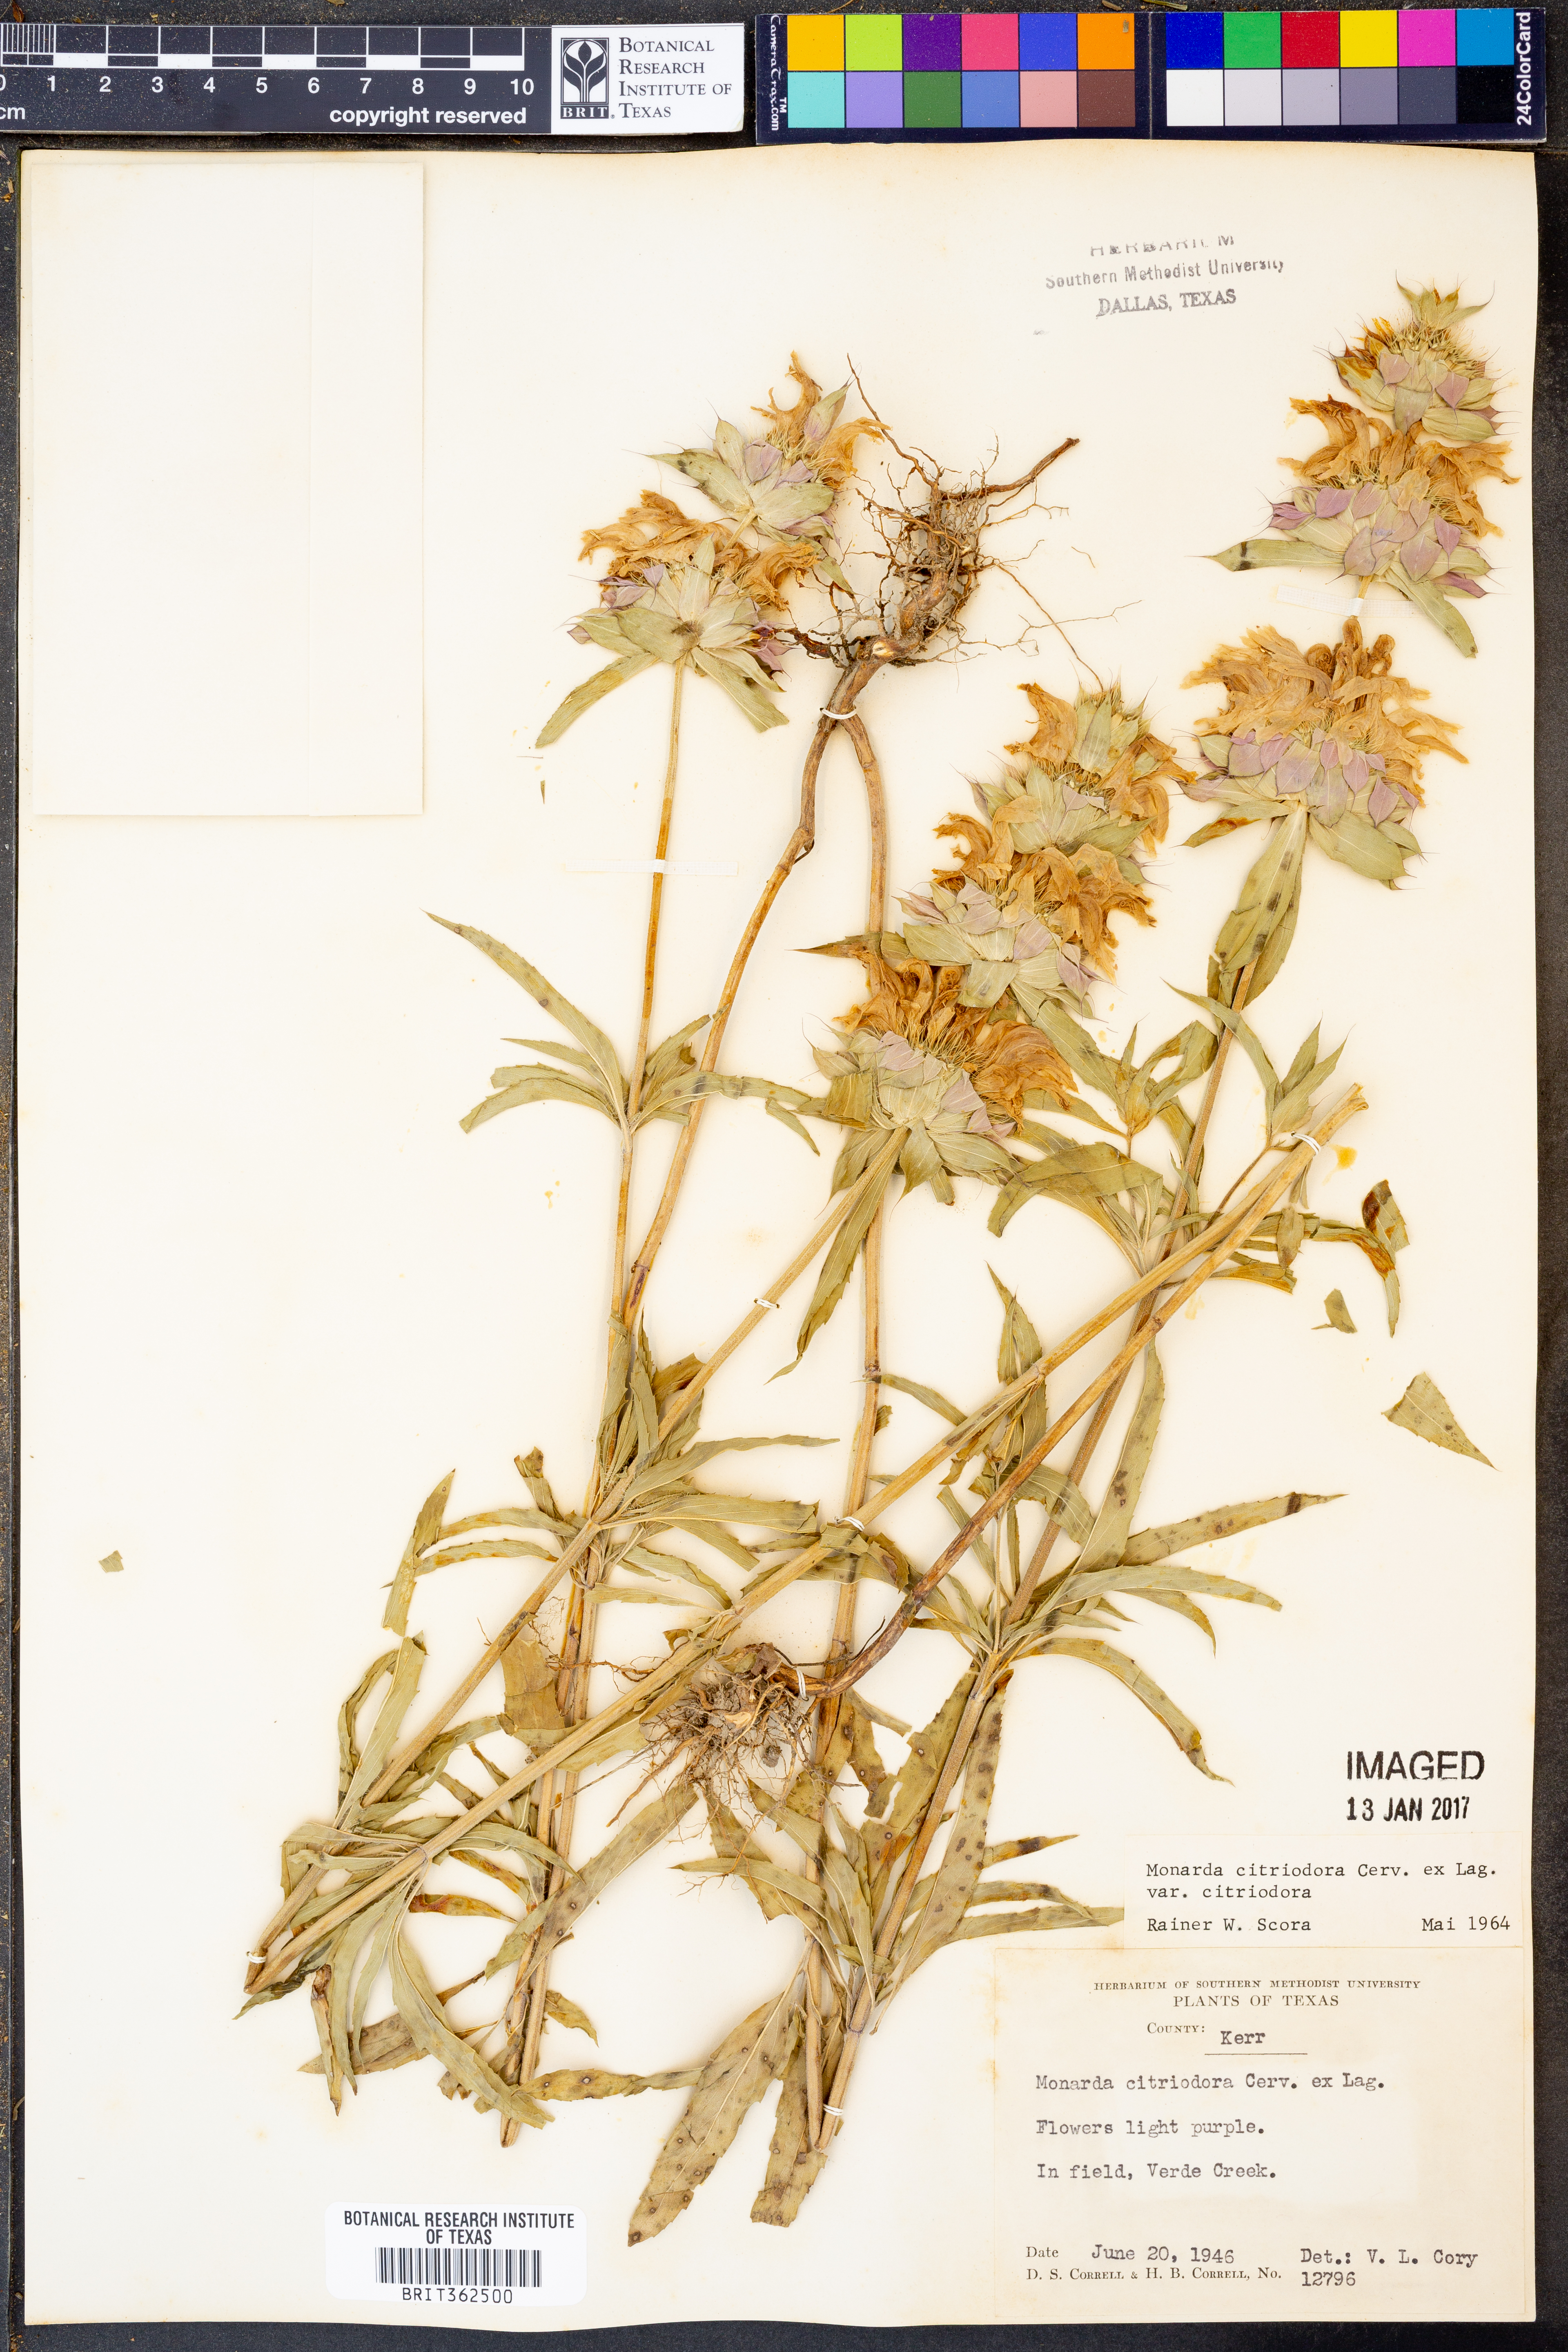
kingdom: Plantae
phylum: Tracheophyta
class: Magnoliopsida
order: Lamiales
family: Lamiaceae
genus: Monarda
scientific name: Monarda citriodora
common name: Lemon beebalm
